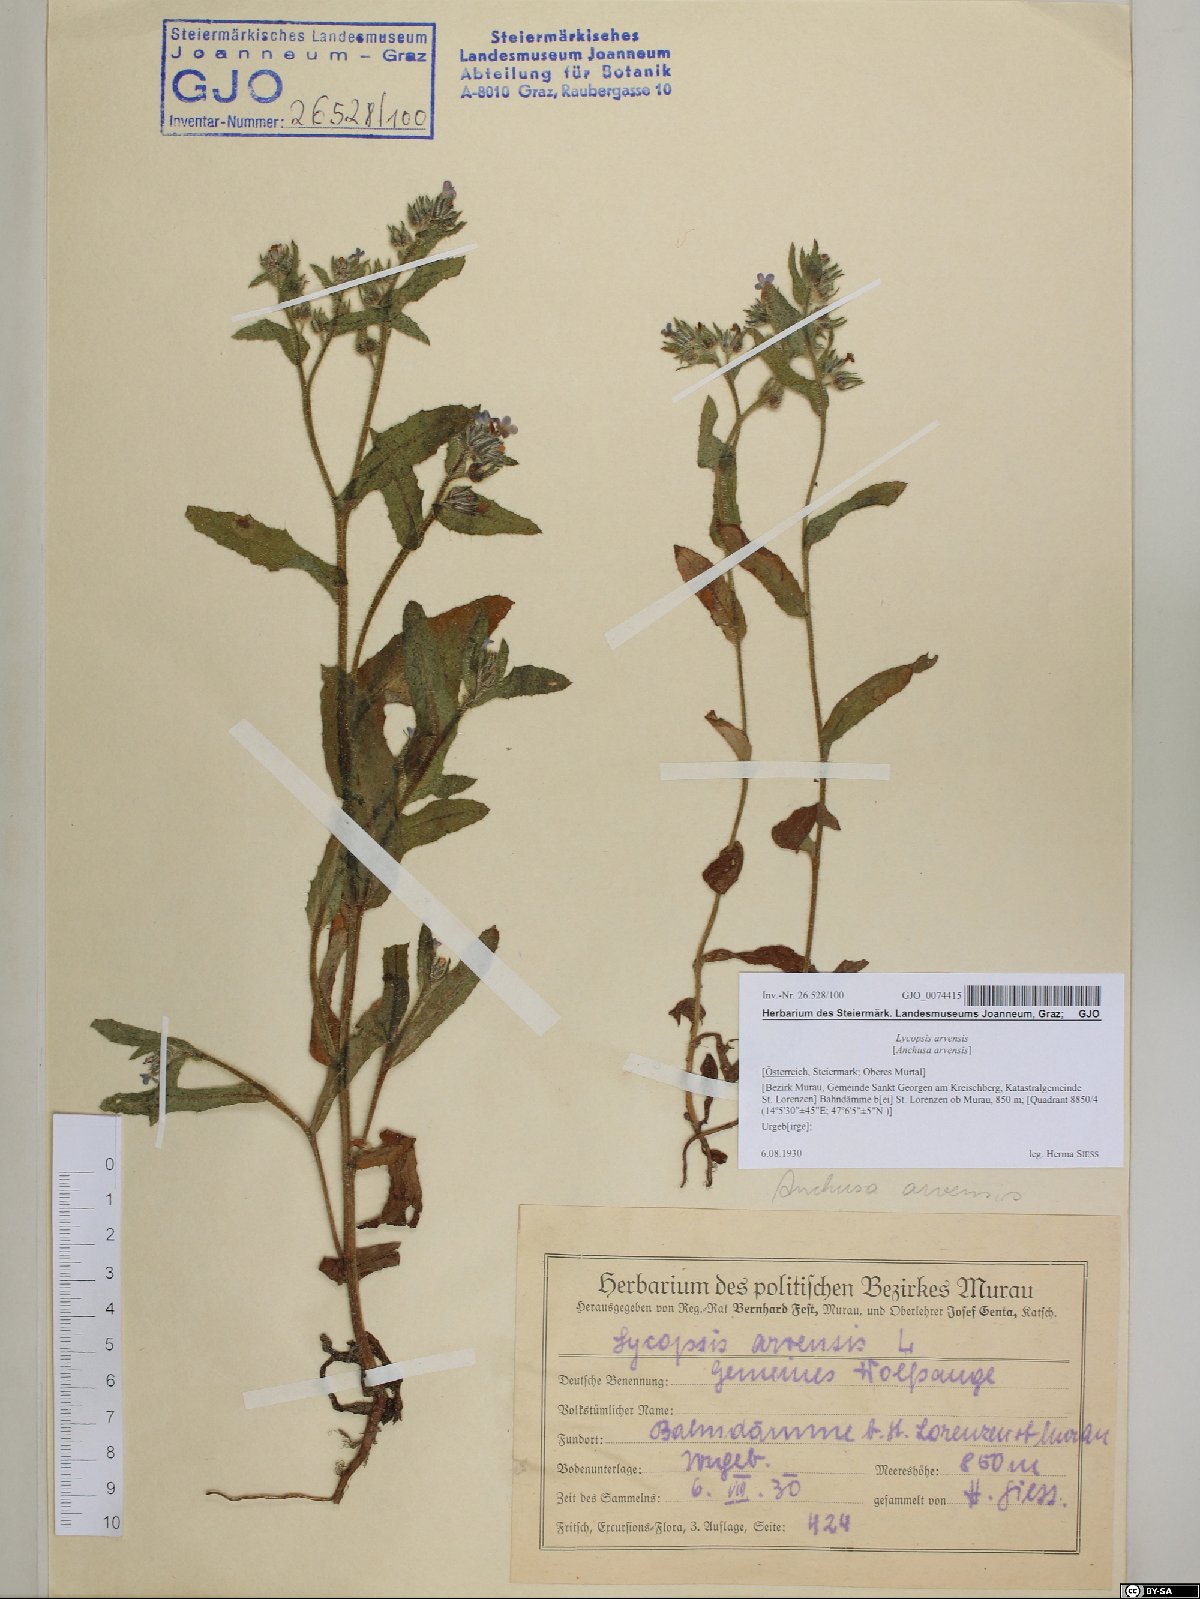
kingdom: Plantae
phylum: Tracheophyta
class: Magnoliopsida
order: Boraginales
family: Boraginaceae
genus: Lycopsis
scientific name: Lycopsis arvensis
